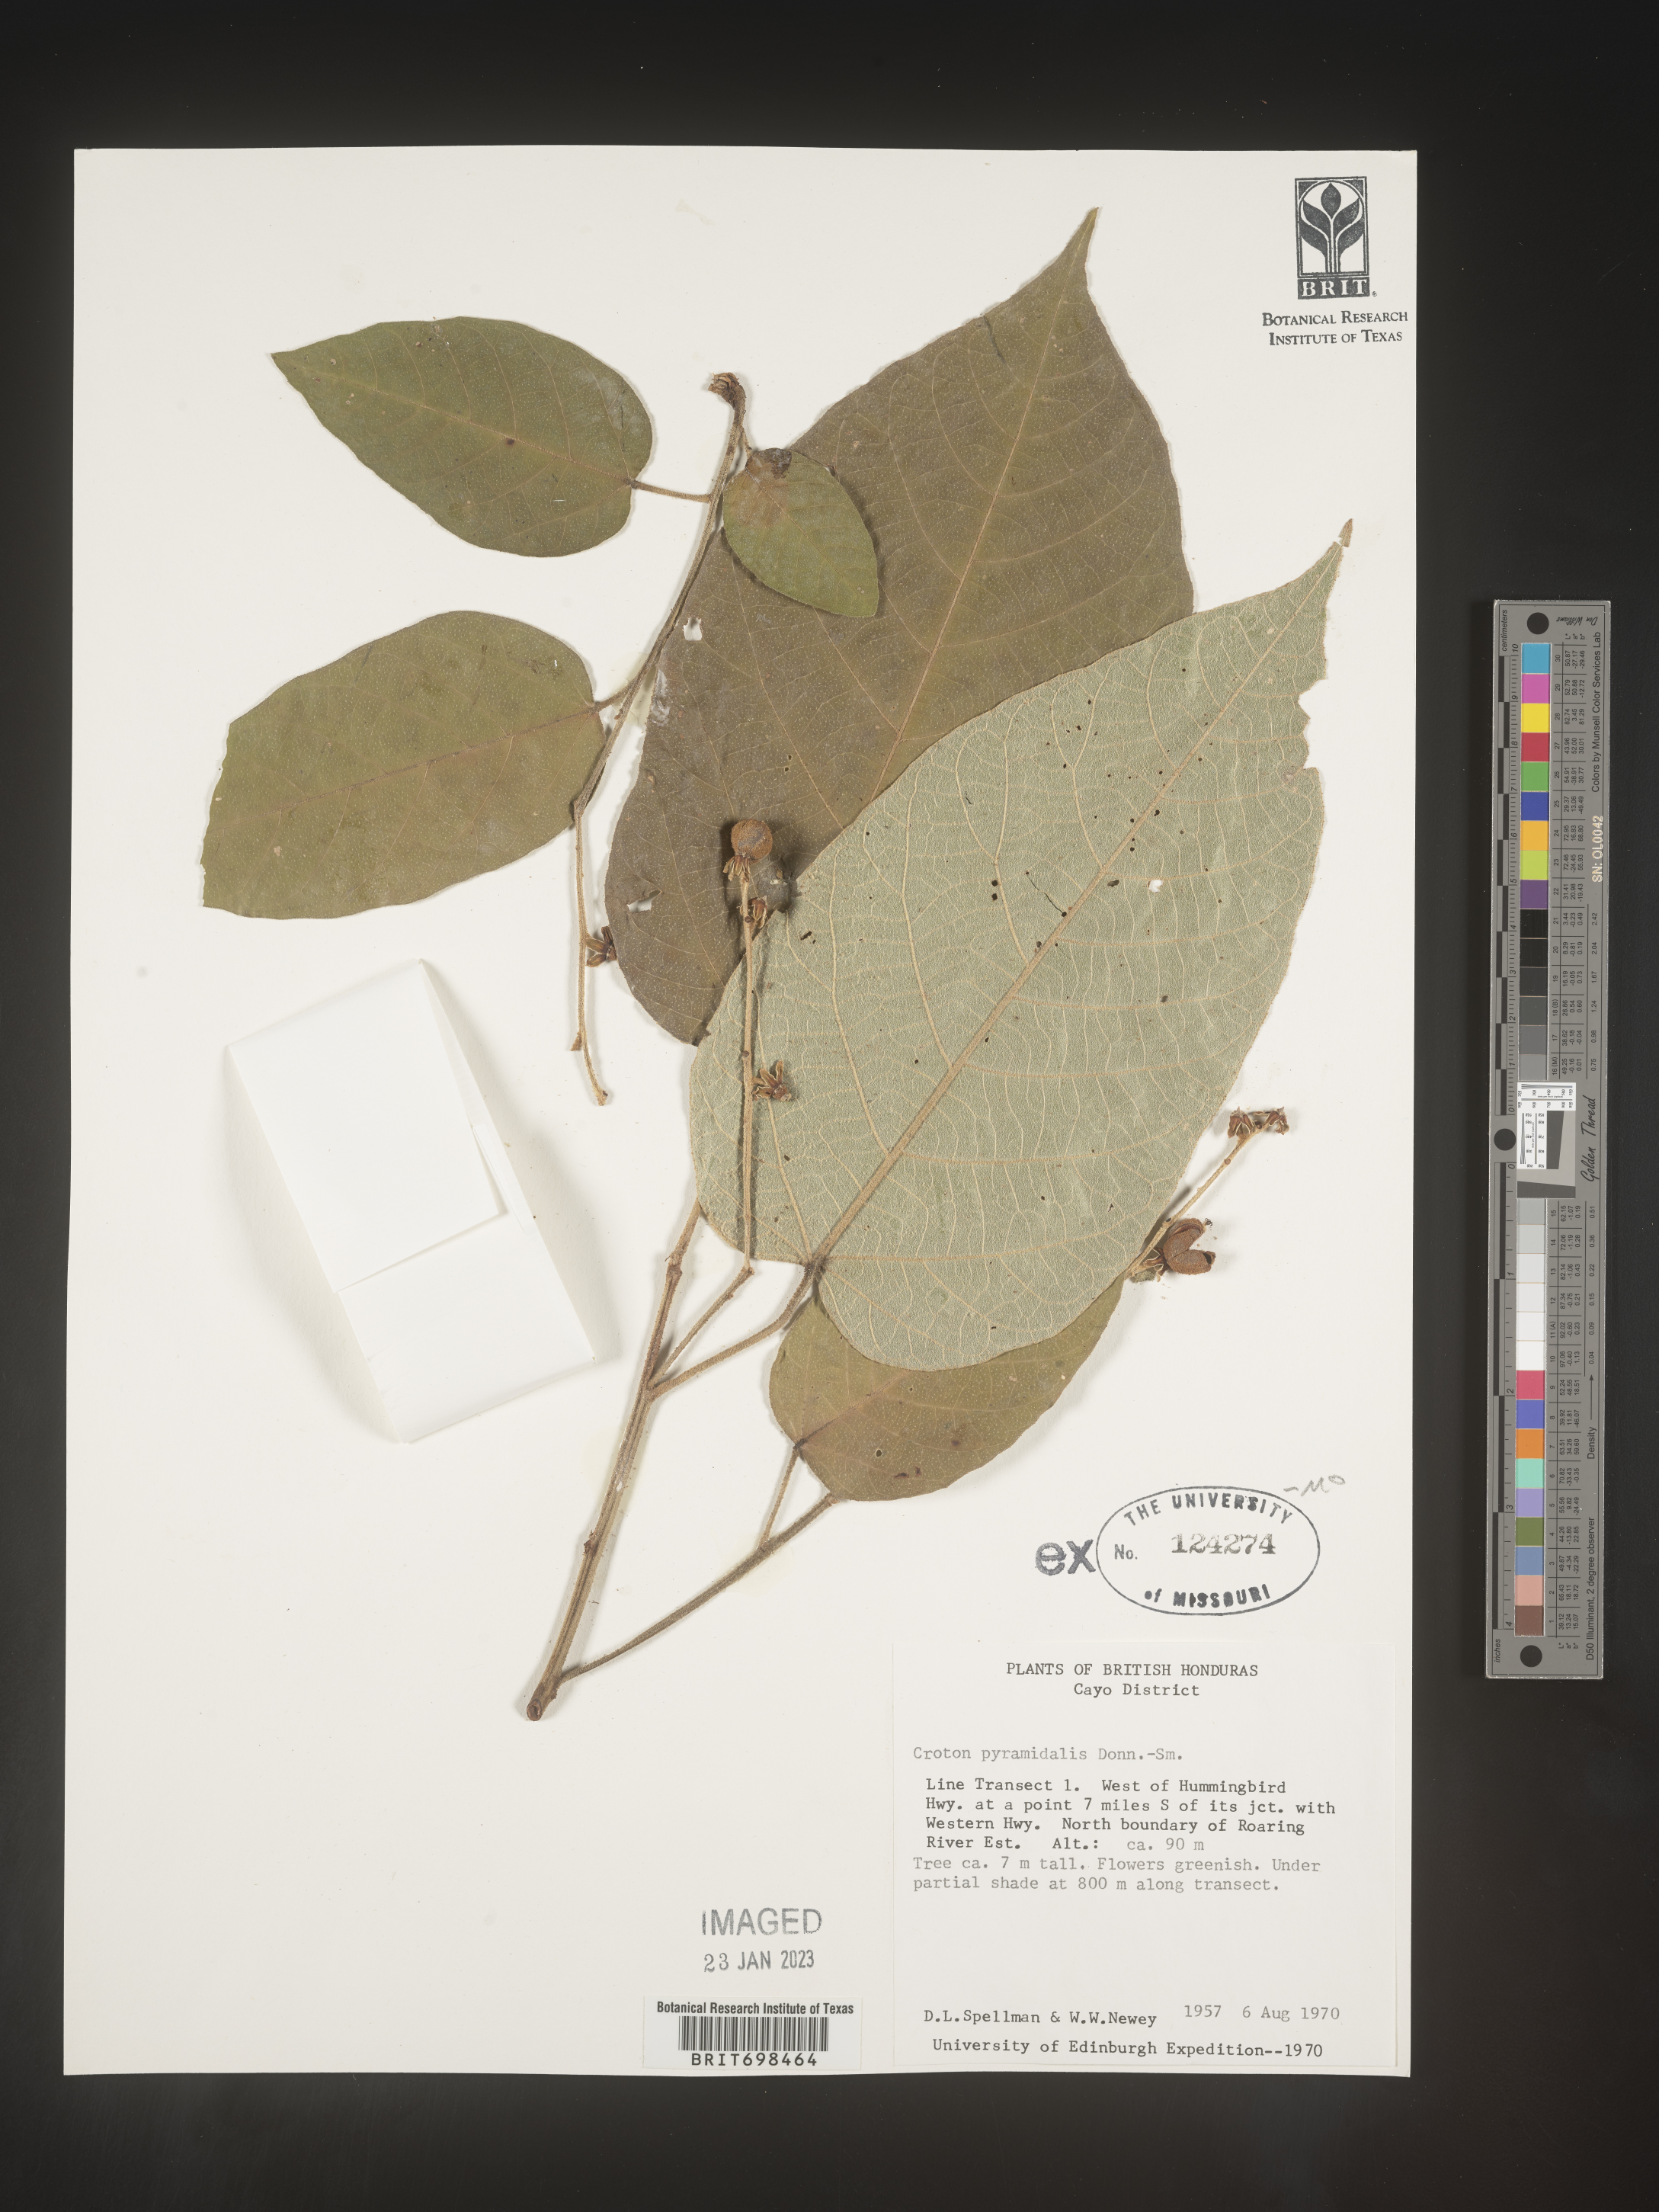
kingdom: Plantae
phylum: Tracheophyta
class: Magnoliopsida
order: Malpighiales
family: Euphorbiaceae
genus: Croton
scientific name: Croton billbergianus
